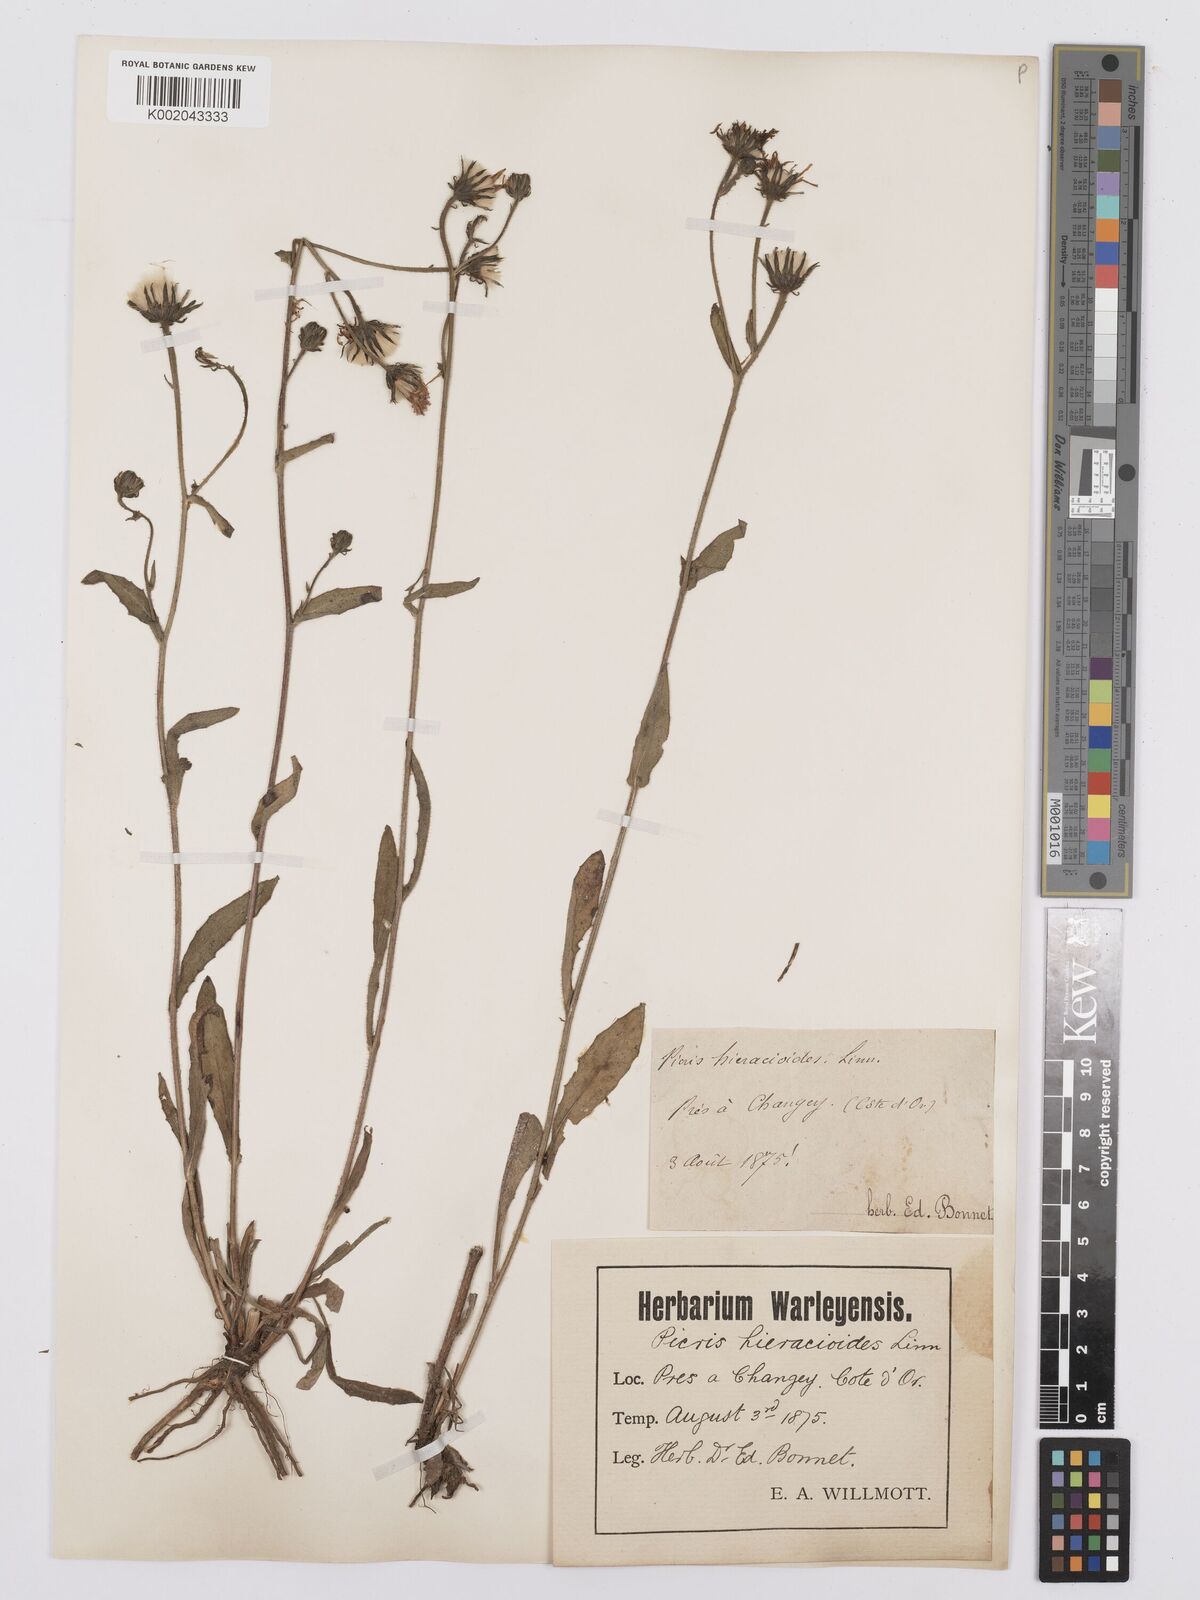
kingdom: Plantae
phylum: Tracheophyta
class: Magnoliopsida
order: Asterales
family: Asteraceae
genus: Picris
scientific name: Picris hieracioides
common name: Hawkweed oxtongue
